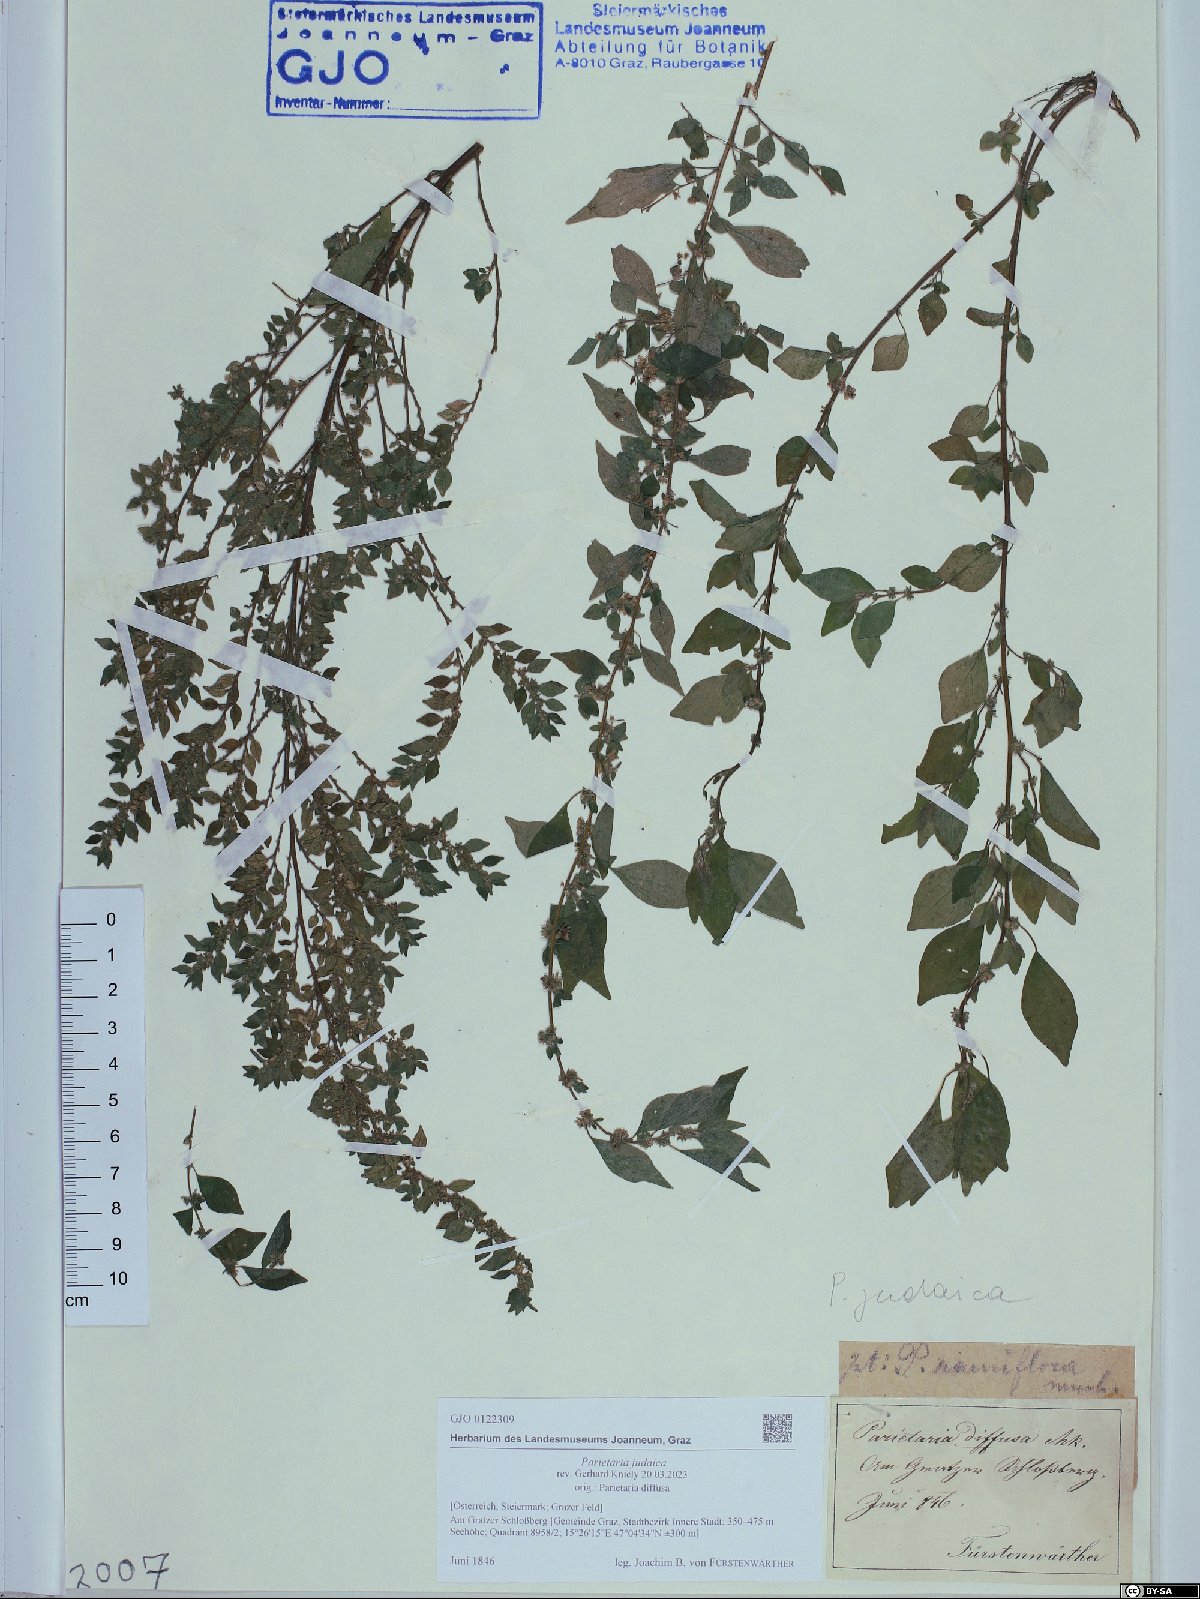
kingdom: Plantae
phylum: Tracheophyta
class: Magnoliopsida
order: Rosales
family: Urticaceae
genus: Parietaria
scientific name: Parietaria judaica
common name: Pellitory-of-the-wall
